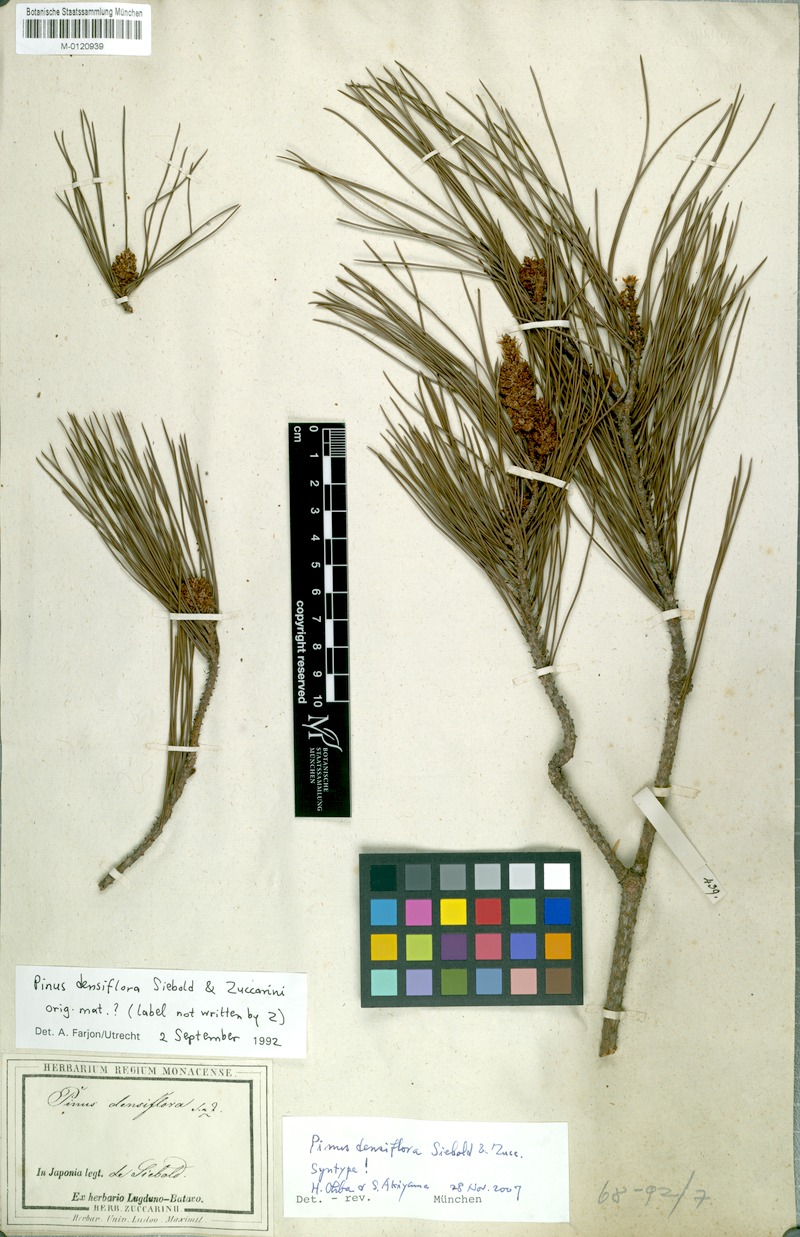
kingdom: Plantae
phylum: Tracheophyta
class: Pinopsida
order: Pinales
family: Pinaceae
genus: Pinus
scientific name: Pinus densiflora
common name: Japanese red pine
